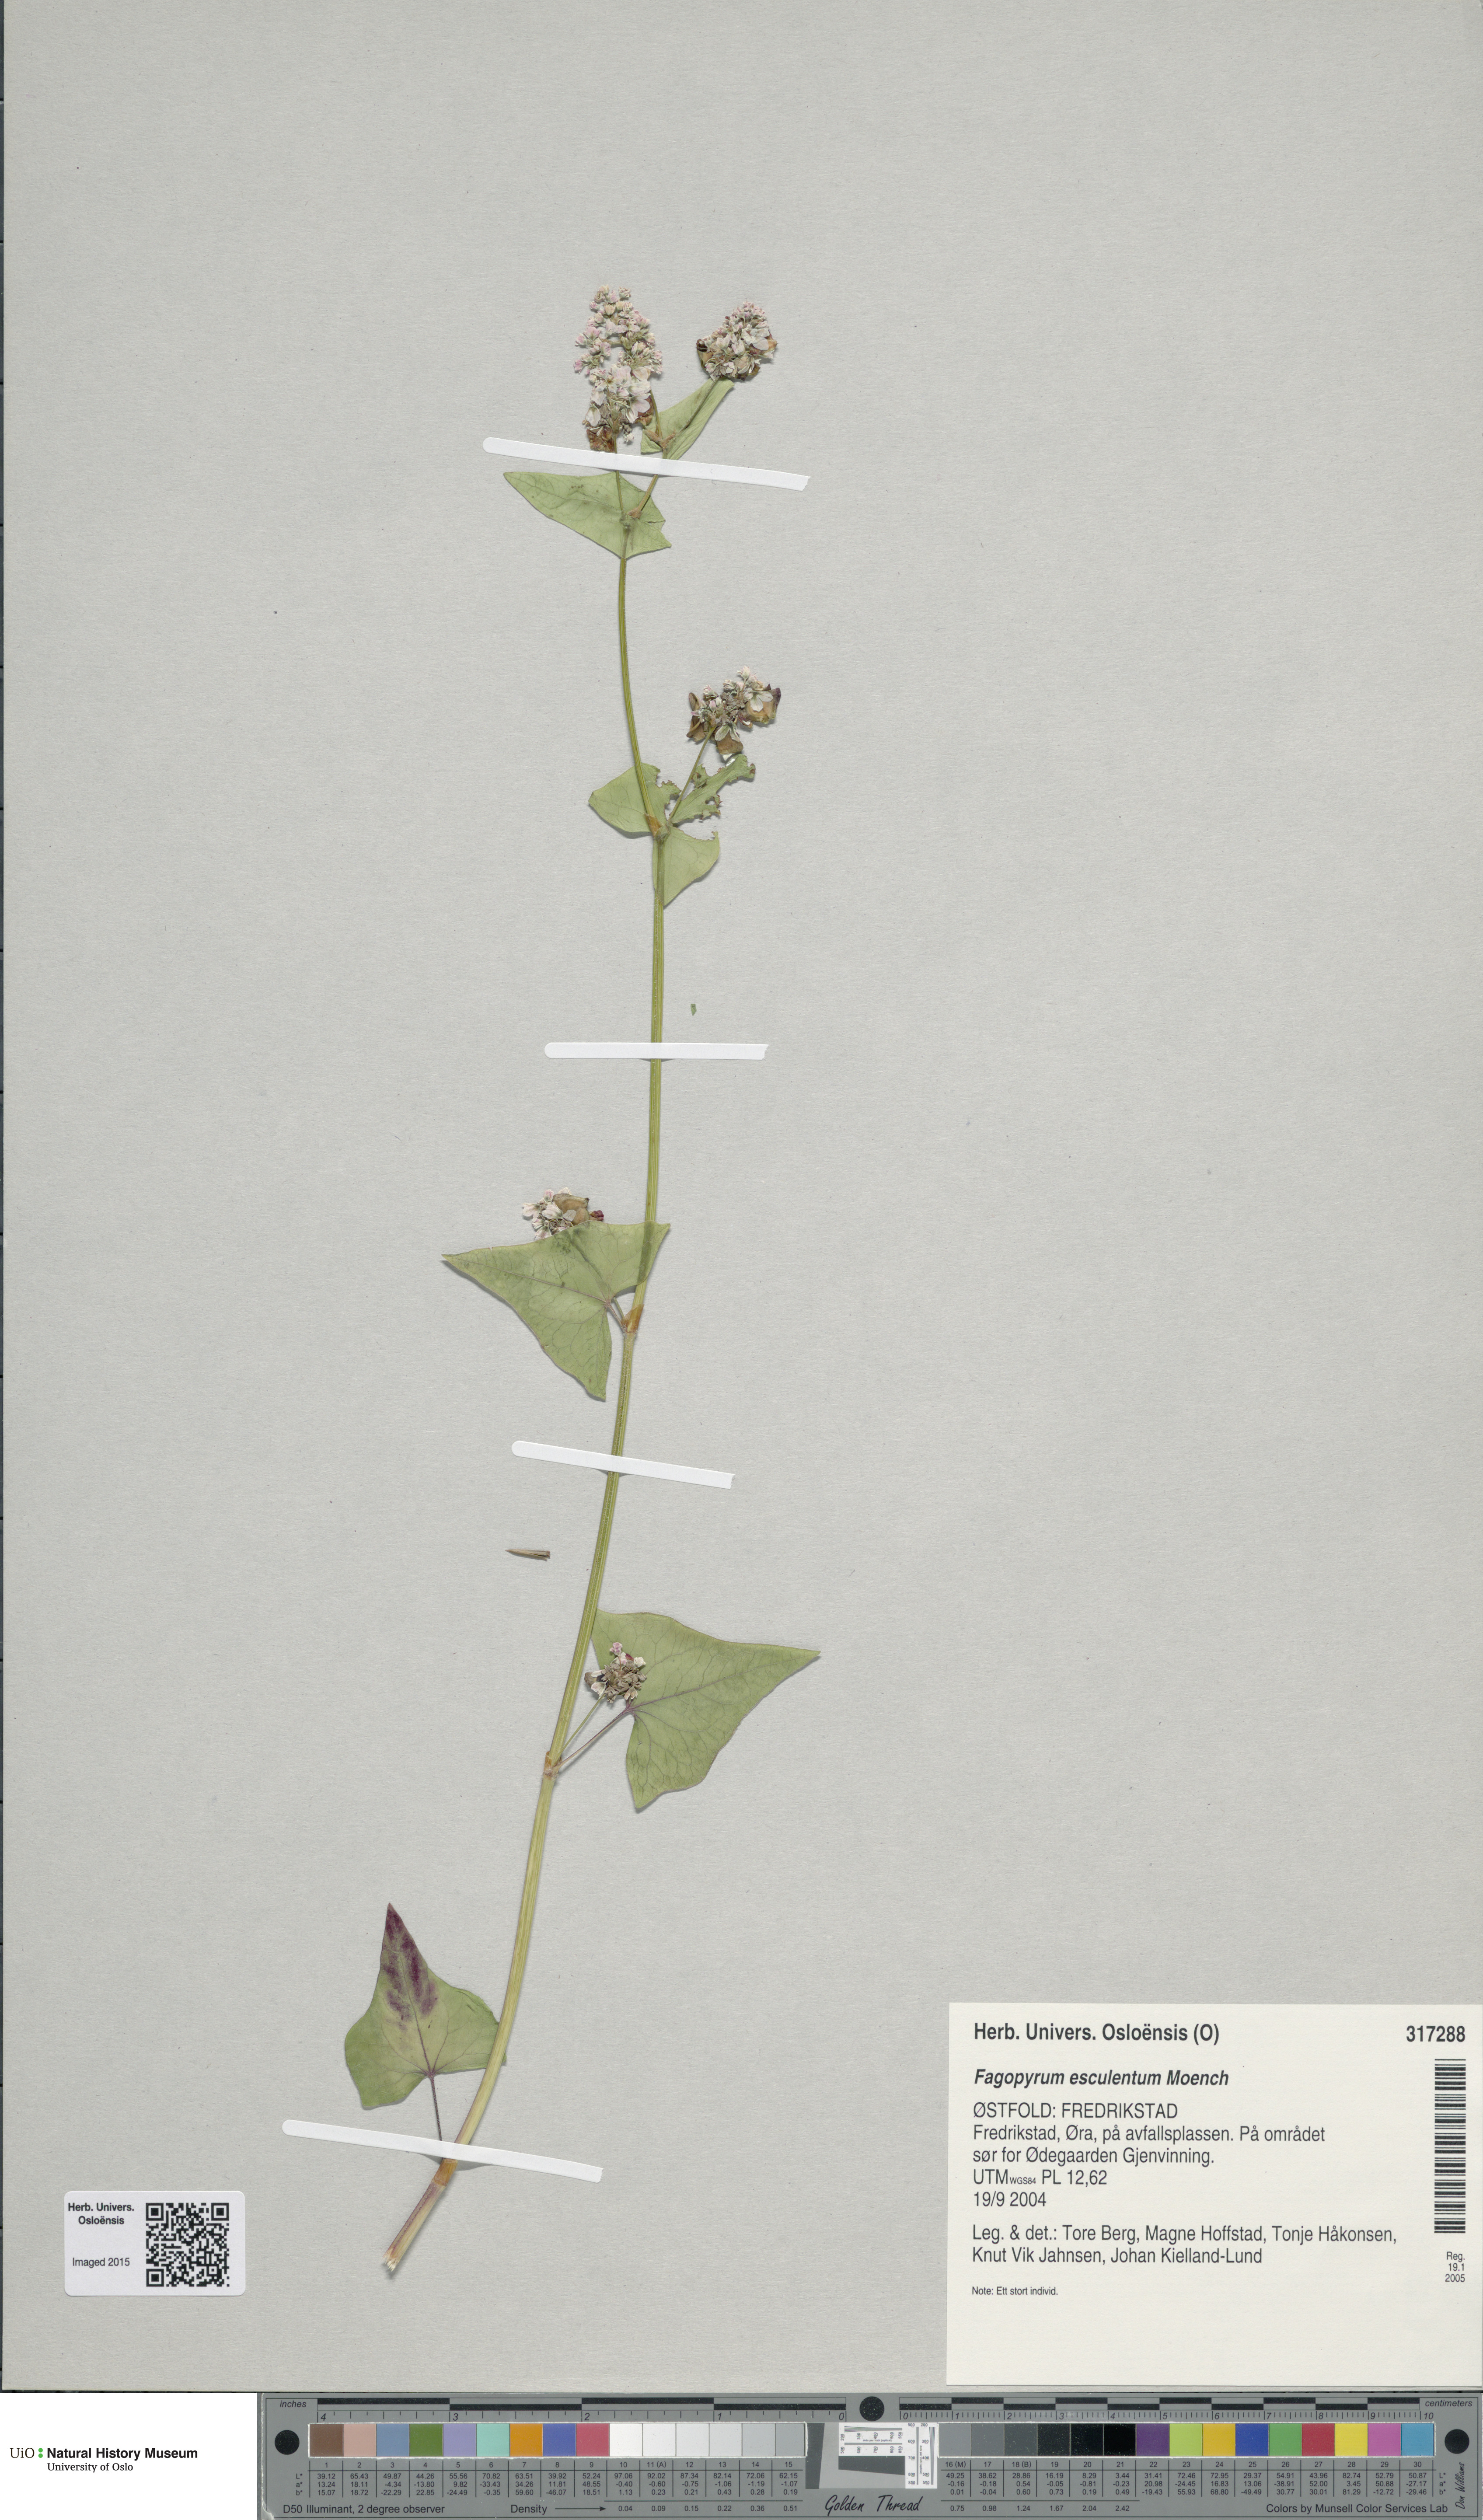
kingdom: Plantae
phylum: Tracheophyta
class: Magnoliopsida
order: Caryophyllales
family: Polygonaceae
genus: Fagopyrum
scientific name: Fagopyrum esculentum
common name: Buckwheat
